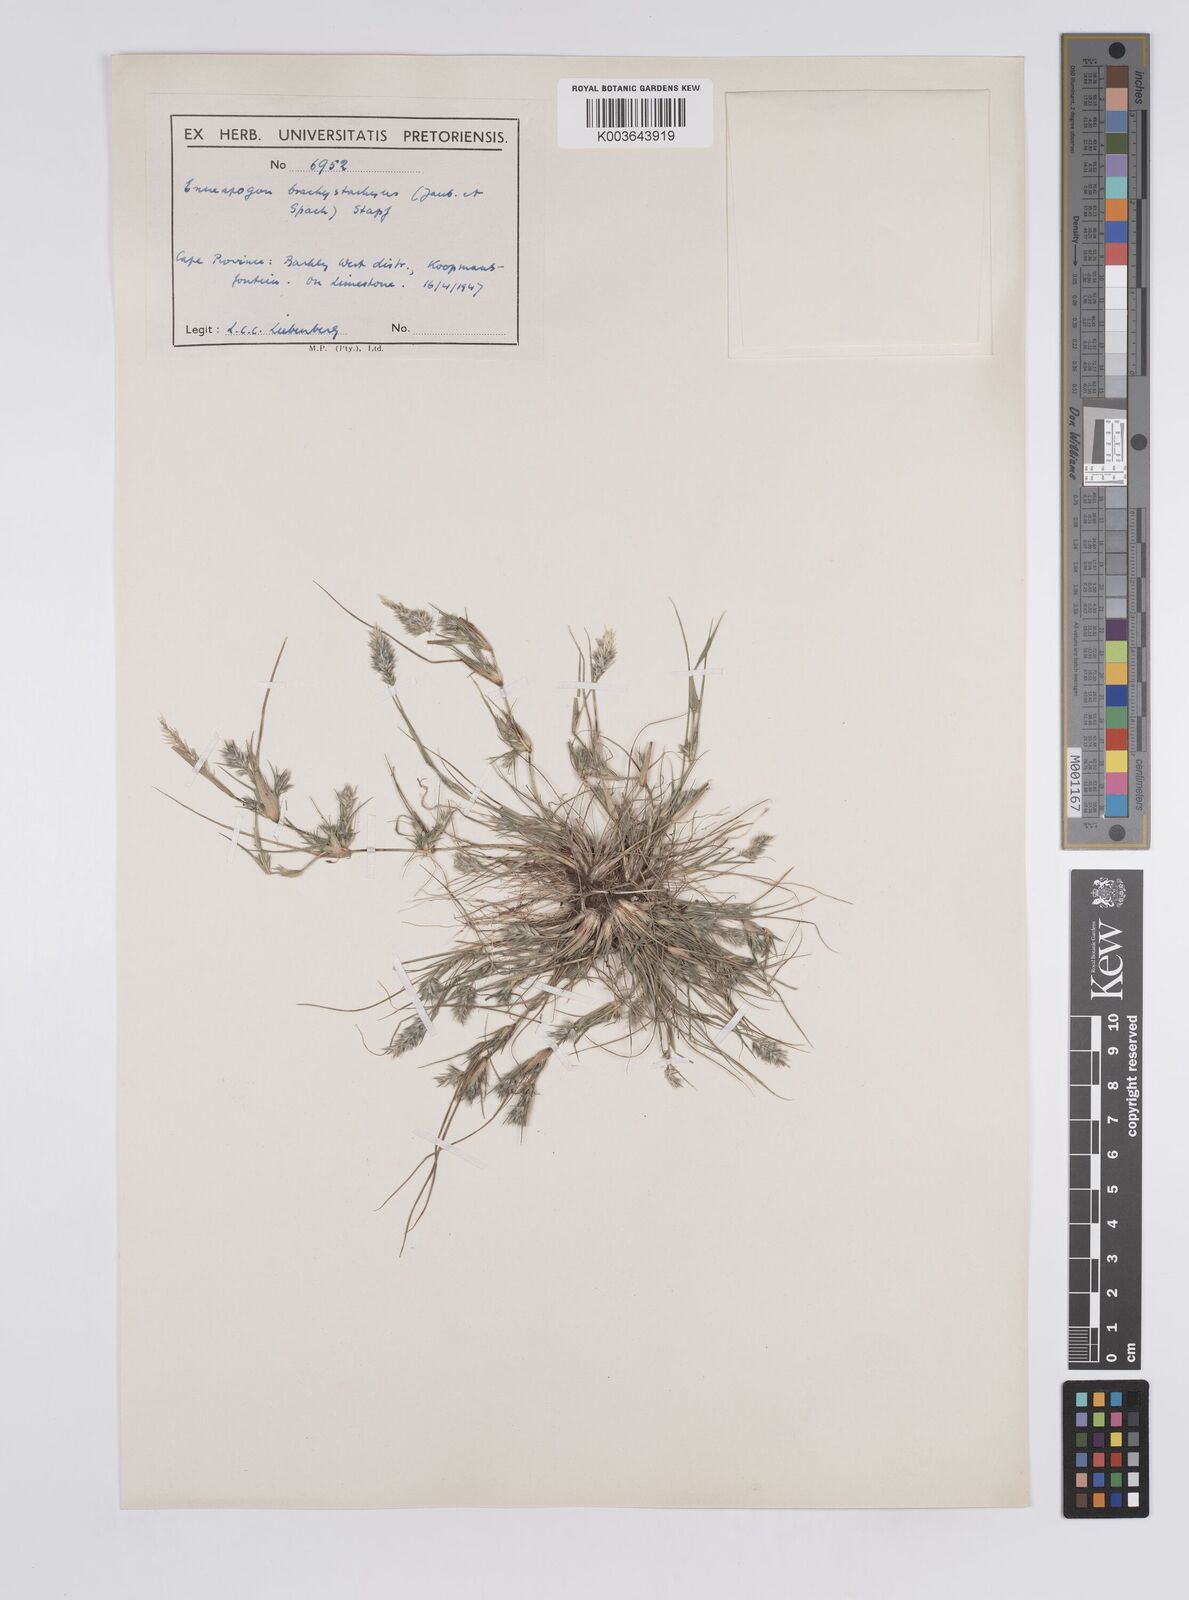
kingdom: Plantae
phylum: Tracheophyta
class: Liliopsida
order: Poales
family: Poaceae
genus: Enneapogon
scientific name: Enneapogon desvauxii
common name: Feather pappus grass
